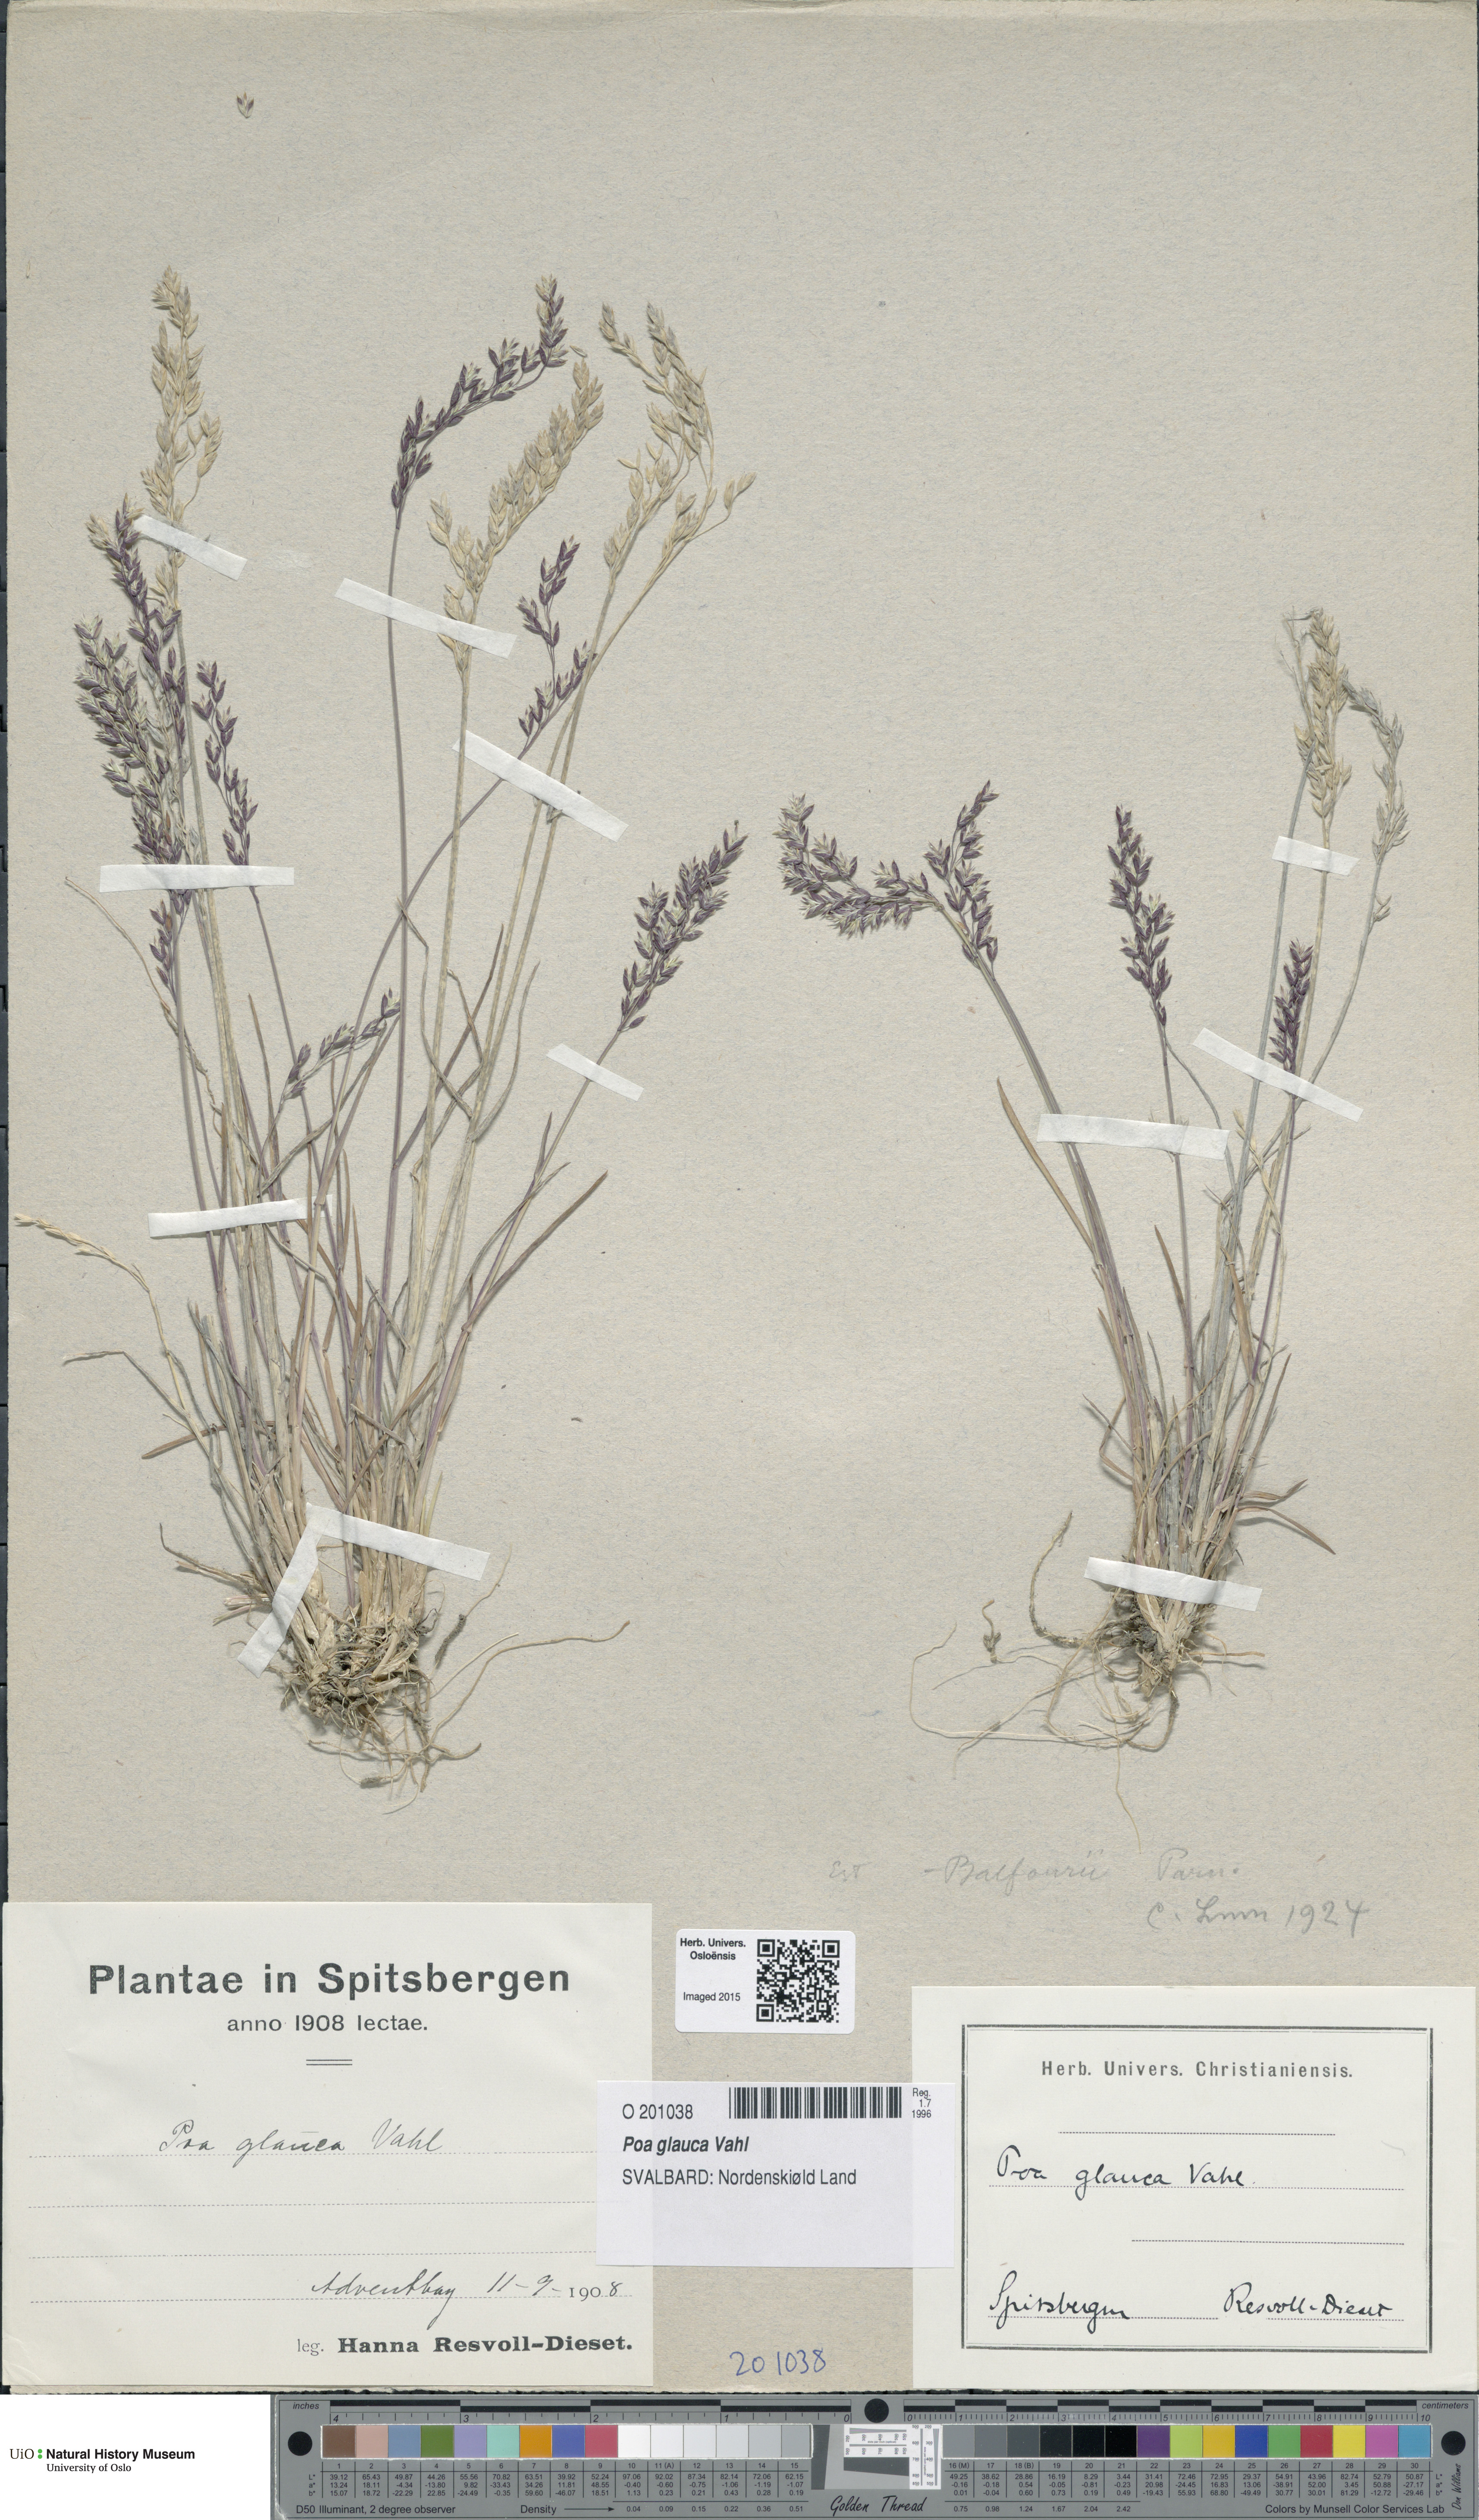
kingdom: Plantae
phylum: Tracheophyta
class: Liliopsida
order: Poales
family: Poaceae
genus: Poa
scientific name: Poa glauca
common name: Glaucous bluegrass
